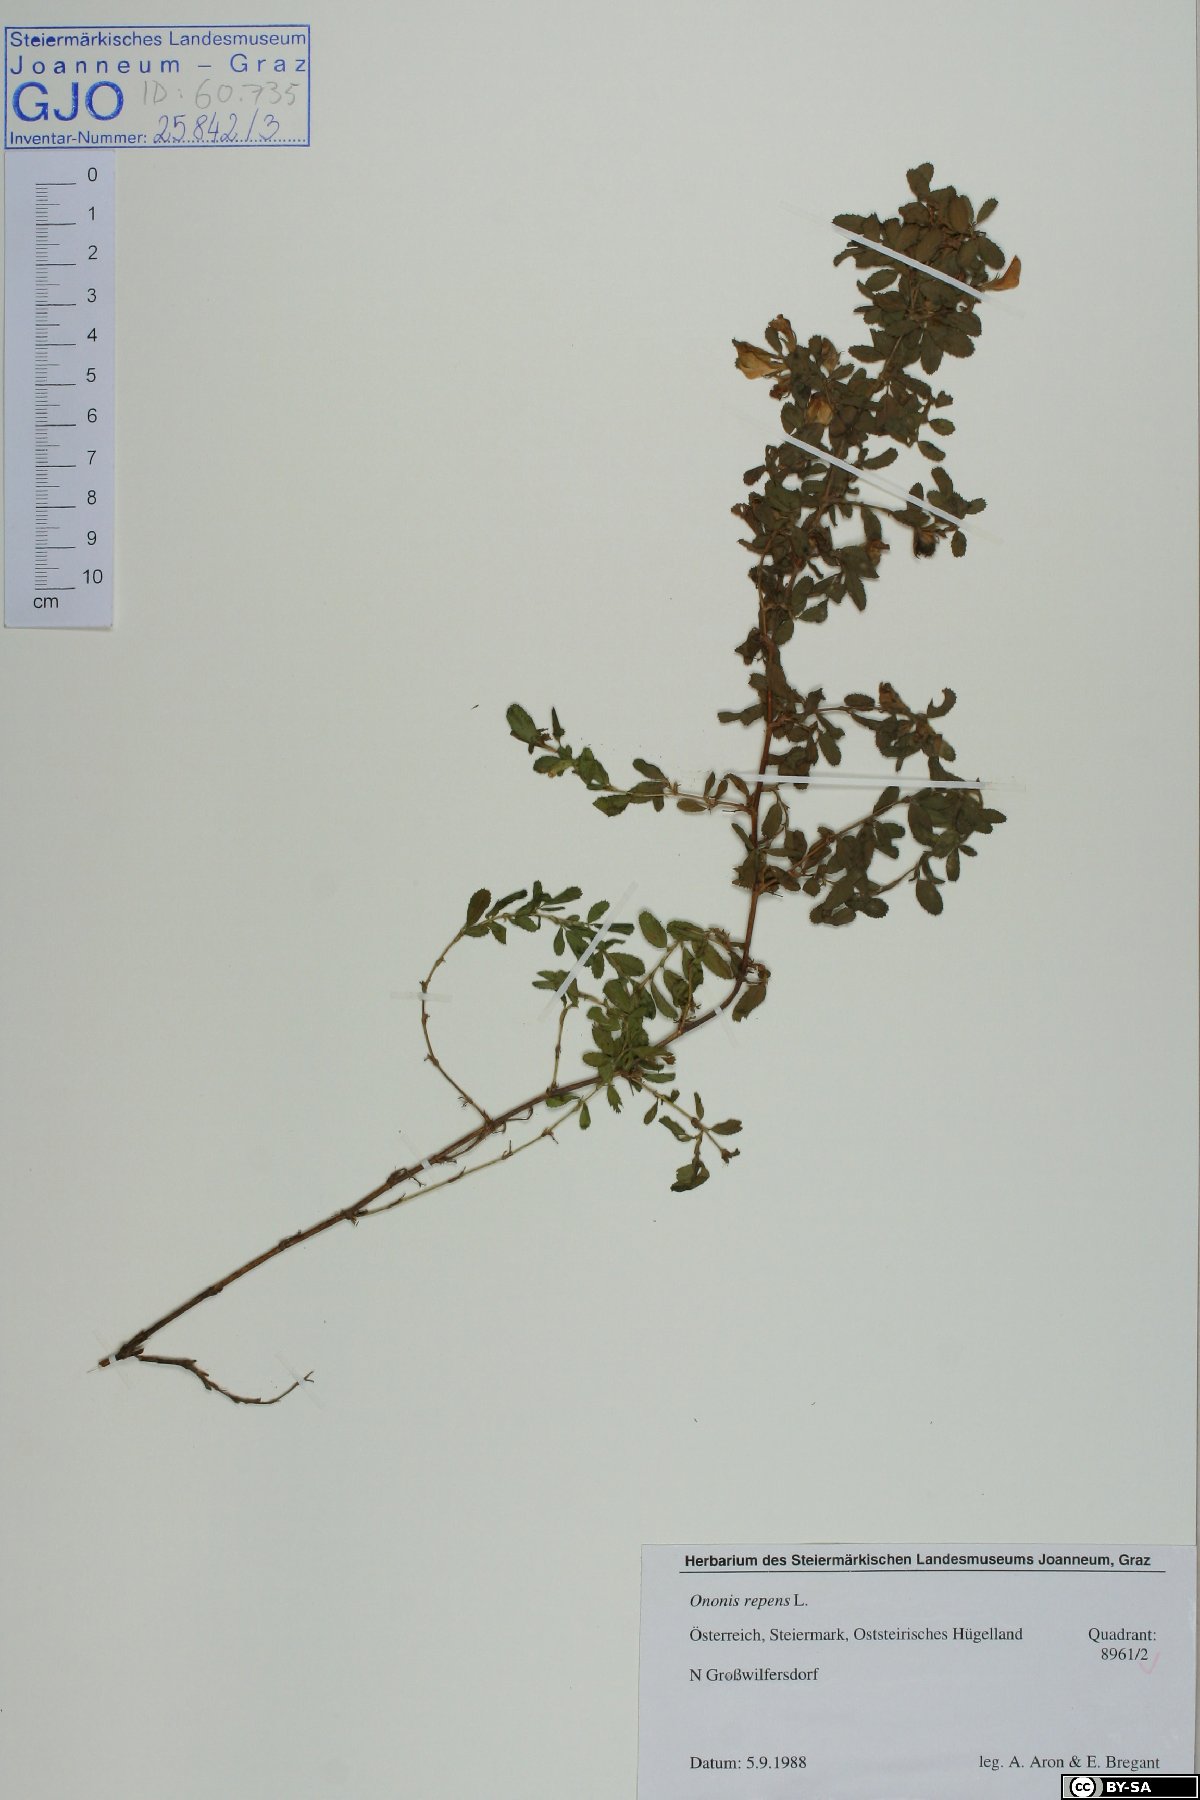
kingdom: Plantae
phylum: Tracheophyta
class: Magnoliopsida
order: Fabales
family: Fabaceae
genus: Ononis
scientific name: Ononis spinosa
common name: Spiny restharrow
